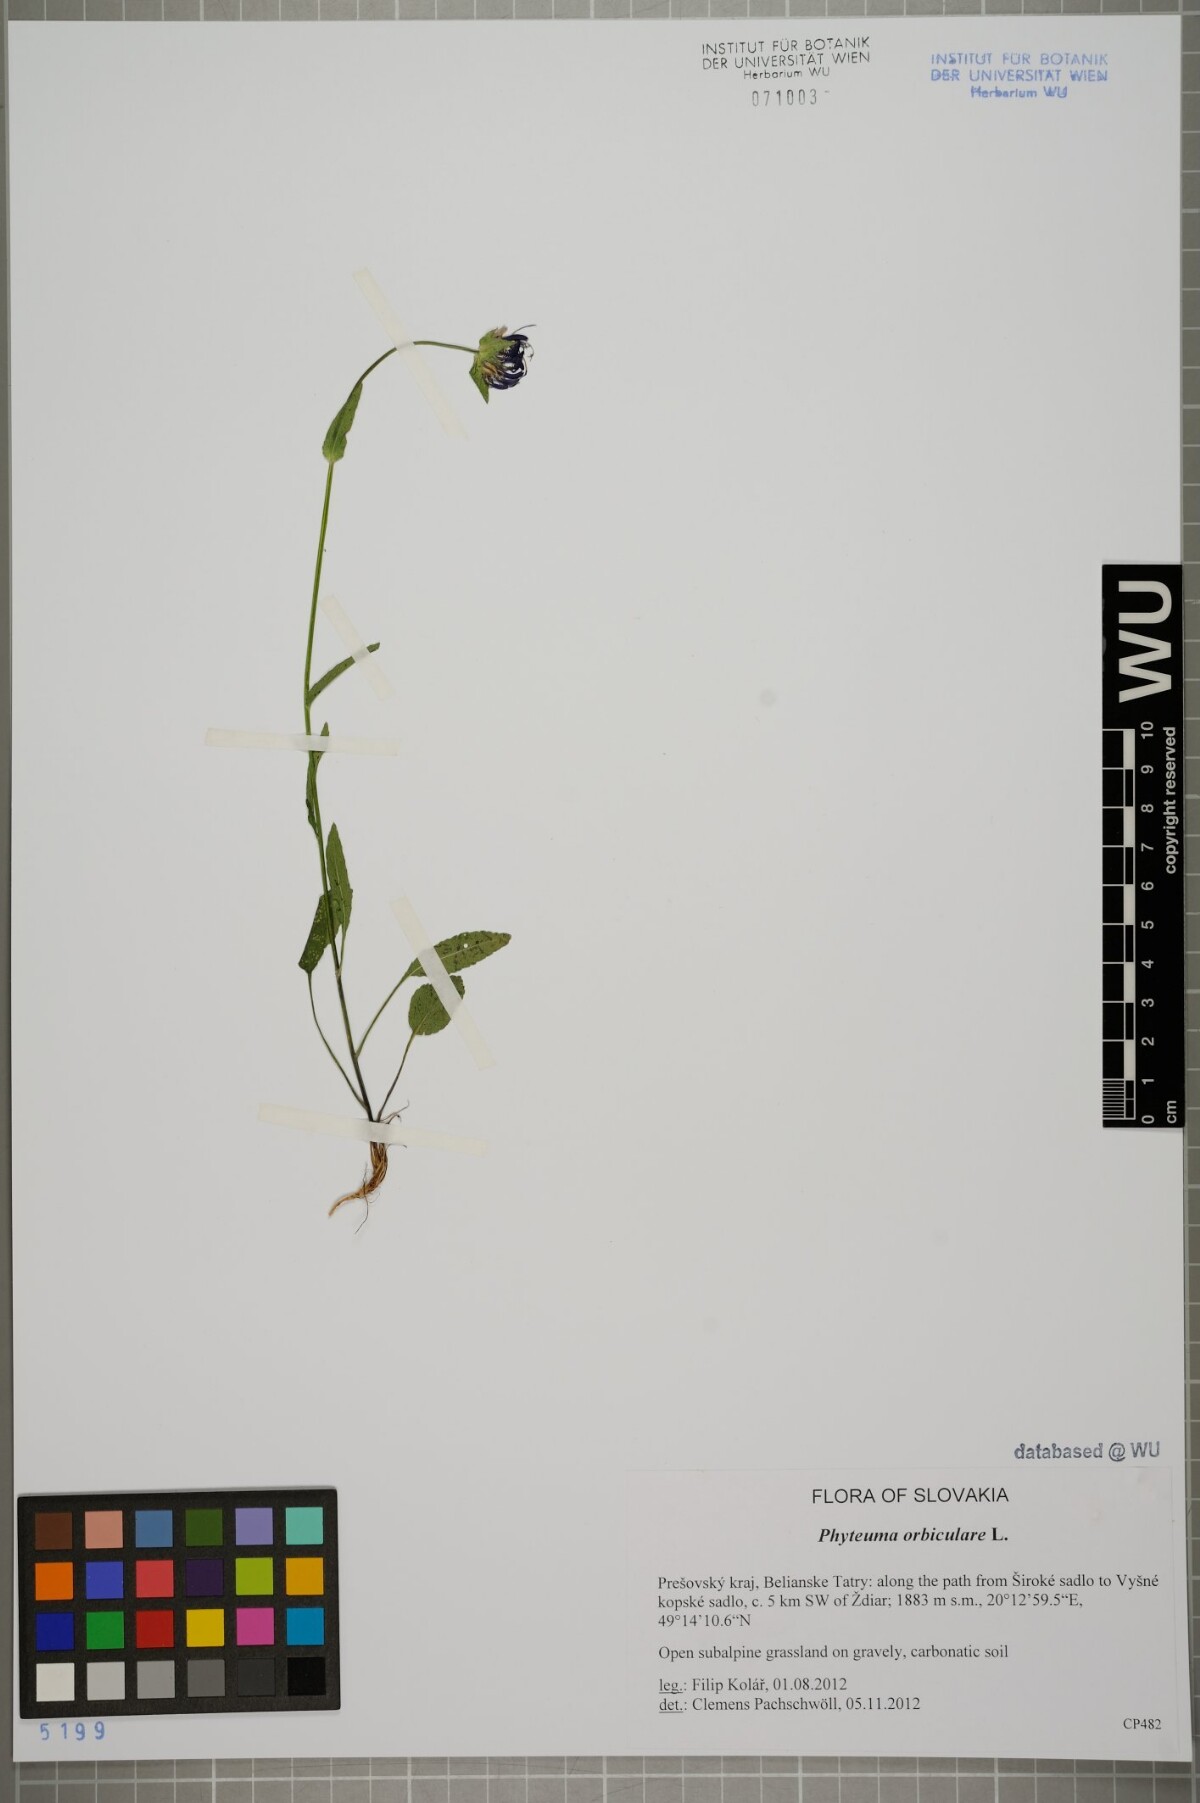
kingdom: Plantae
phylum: Tracheophyta
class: Magnoliopsida
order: Asterales
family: Campanulaceae
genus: Phyteuma
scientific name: Phyteuma orbiculare
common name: Round-headed rampion
